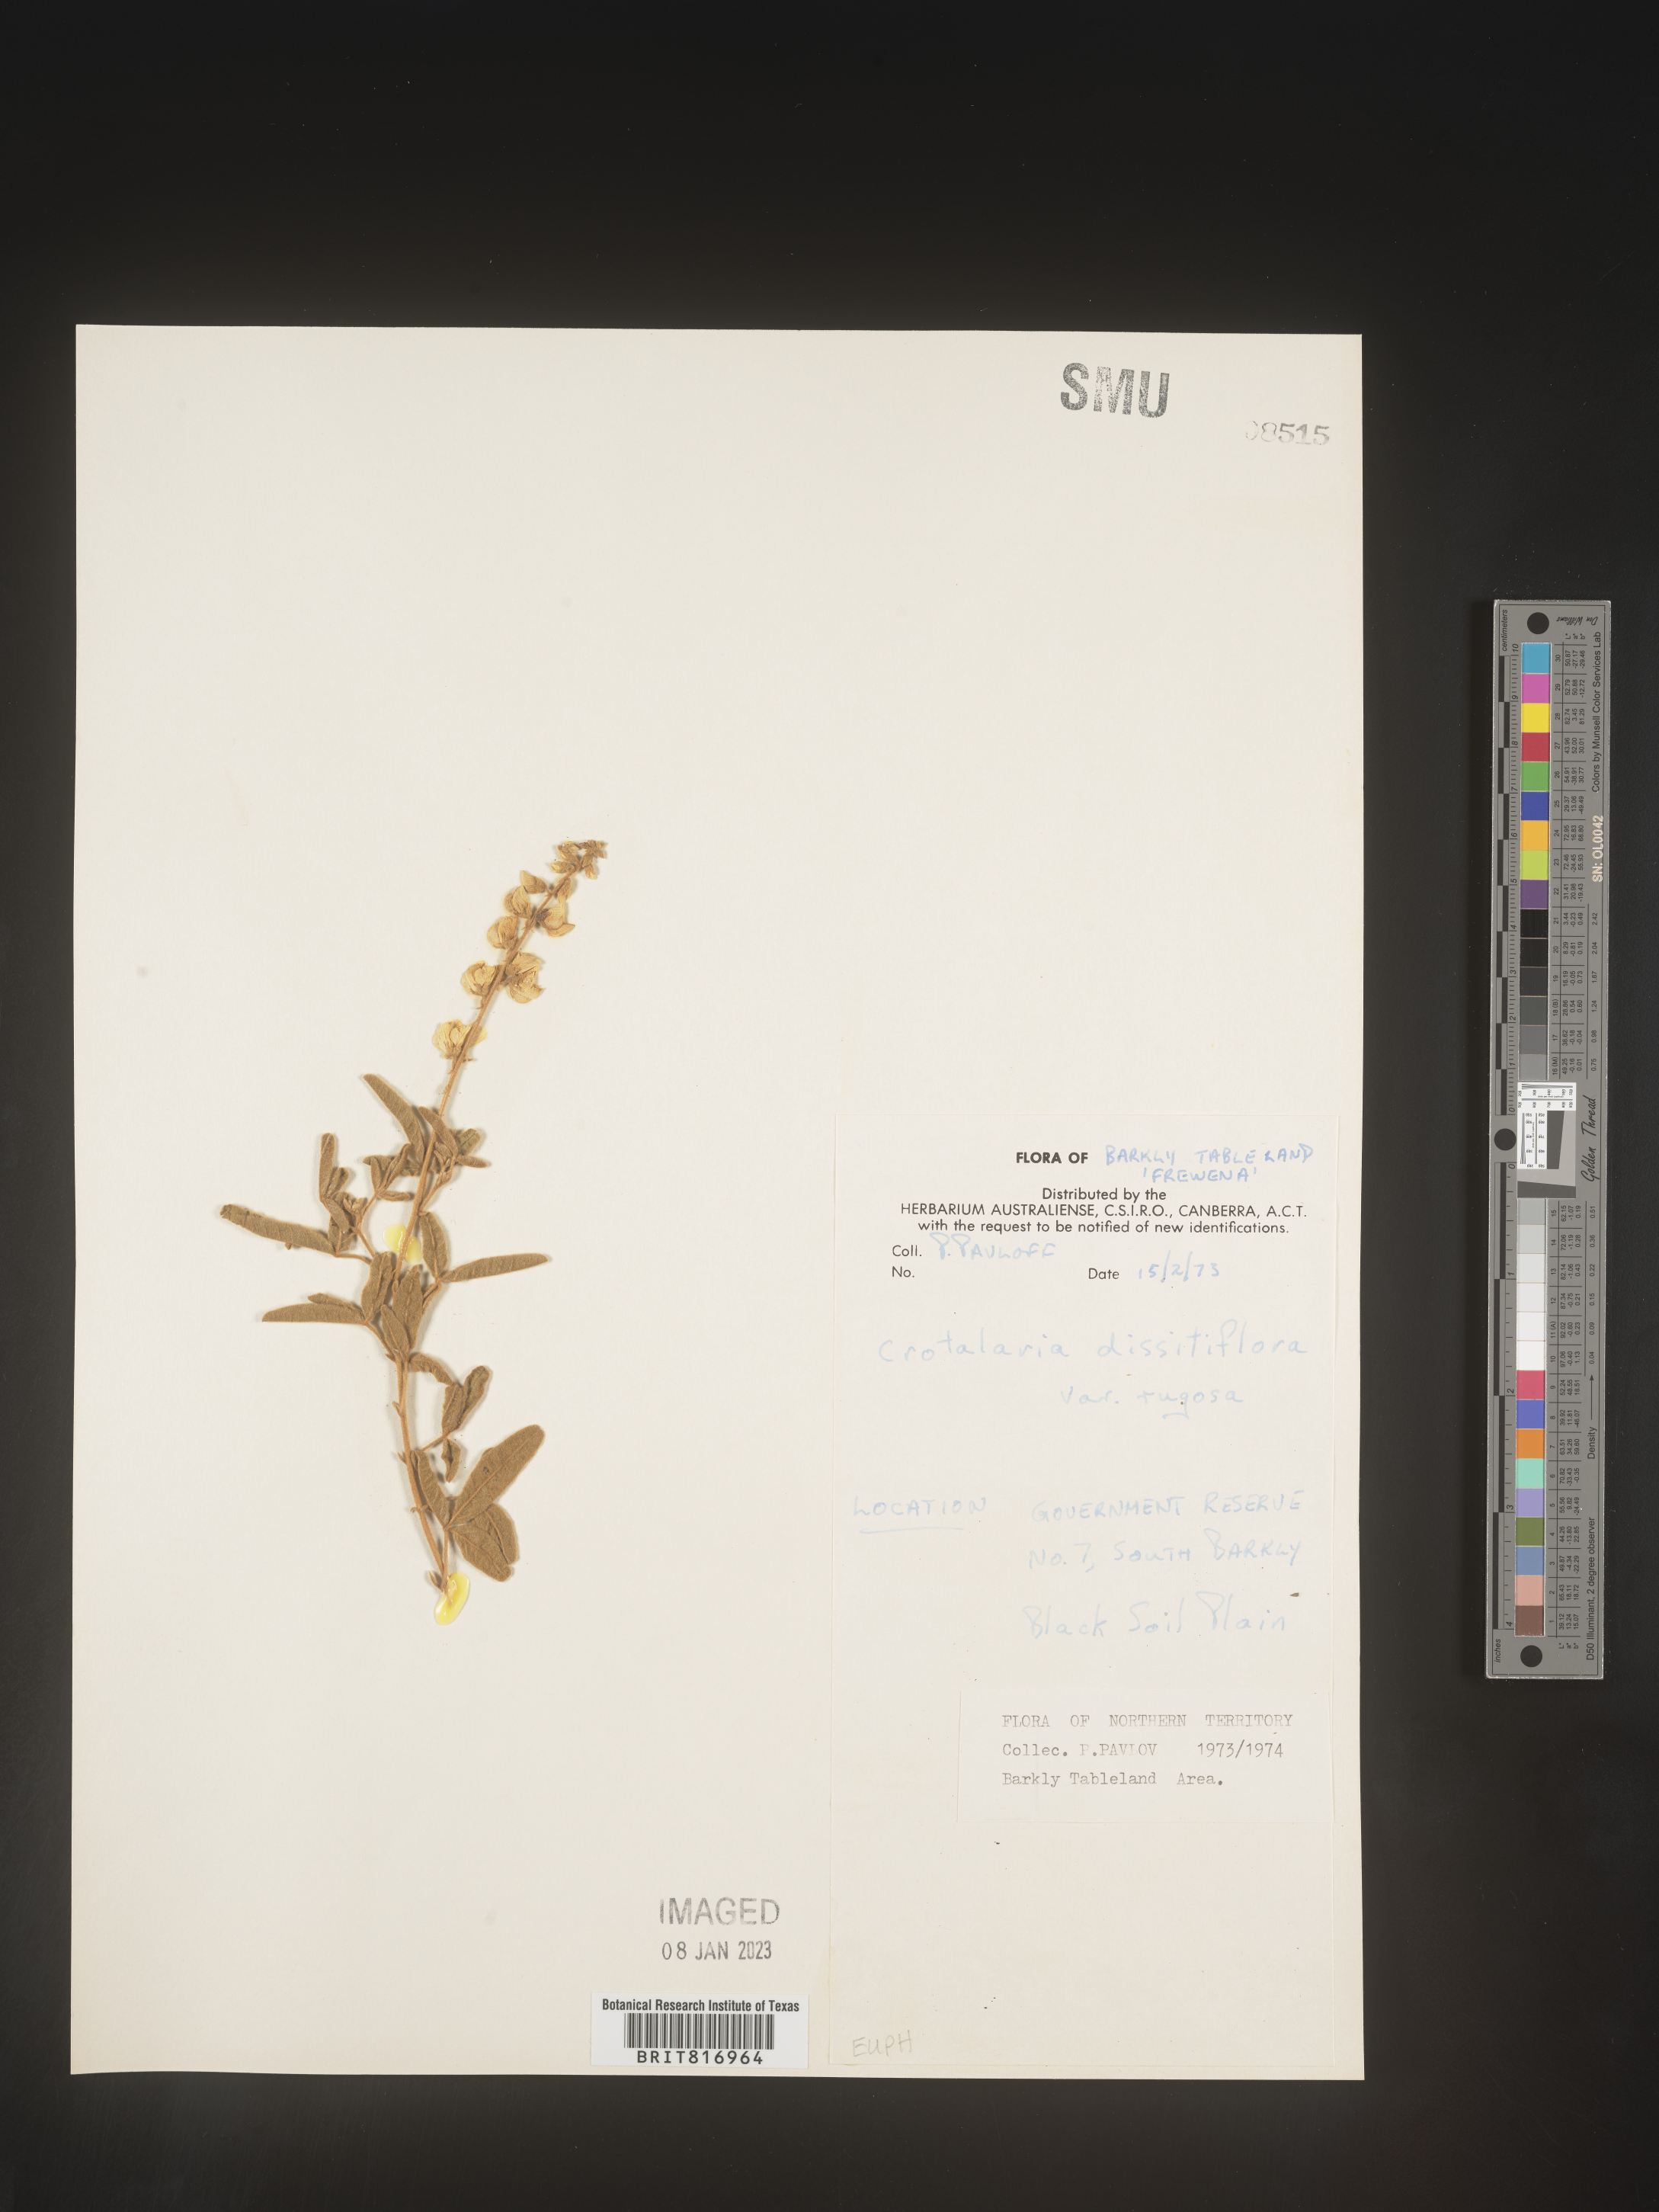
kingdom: Plantae
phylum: Tracheophyta
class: Magnoliopsida
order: Fabales
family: Fabaceae
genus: Crotalaria
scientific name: Crotalaria
